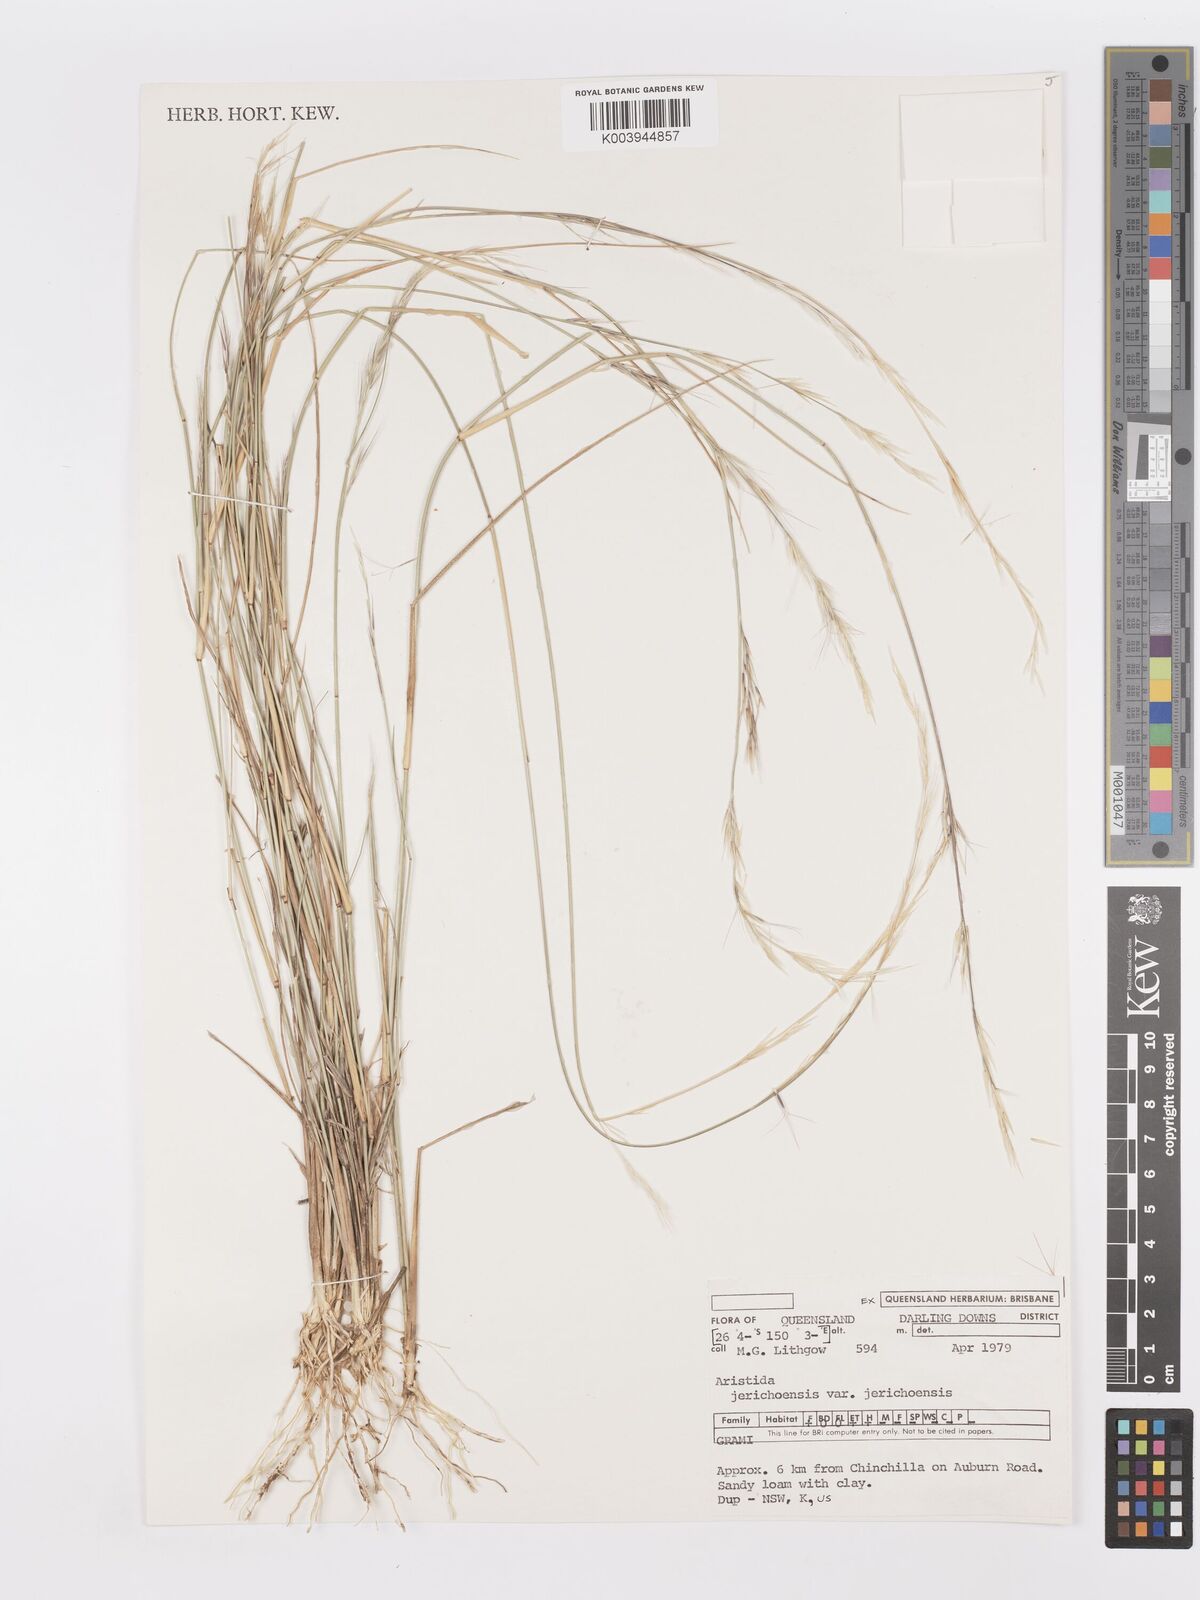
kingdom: Plantae
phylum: Tracheophyta
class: Liliopsida
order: Poales
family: Poaceae
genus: Aristida
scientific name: Aristida jerichoensis
